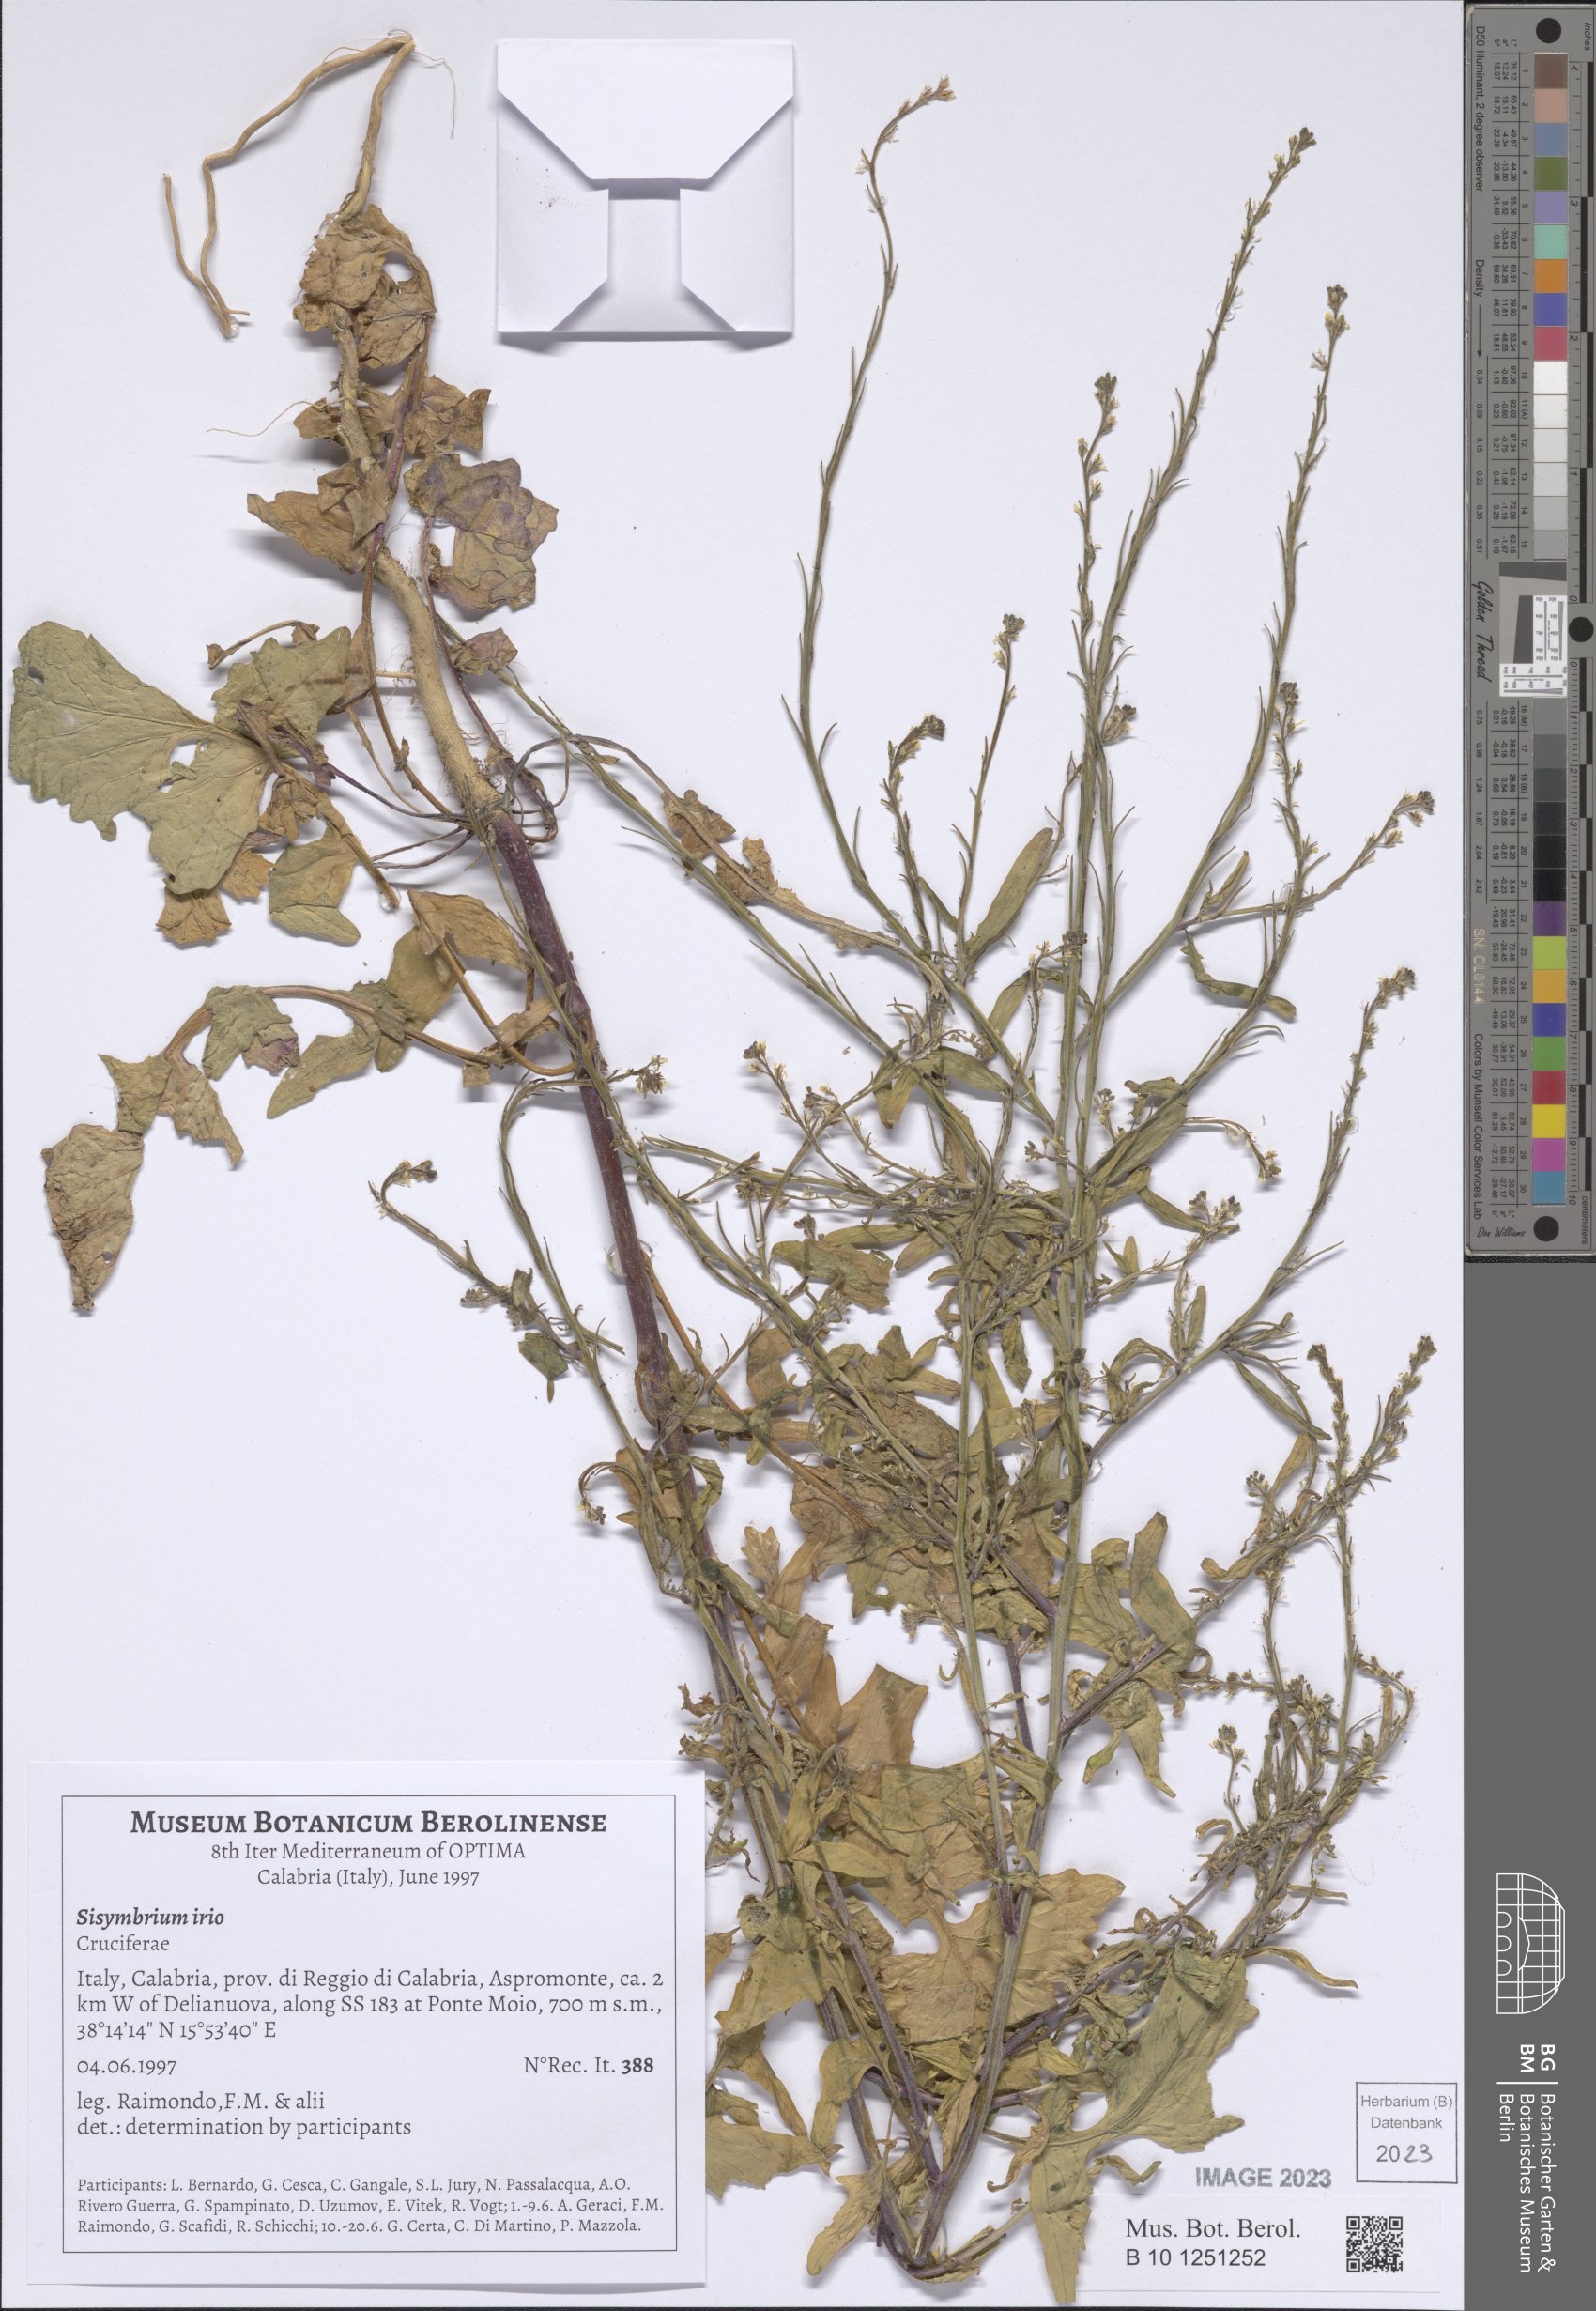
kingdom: Plantae
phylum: Tracheophyta
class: Magnoliopsida
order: Brassicales
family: Brassicaceae
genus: Sisymbrium
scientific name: Sisymbrium irio
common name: London rocket
